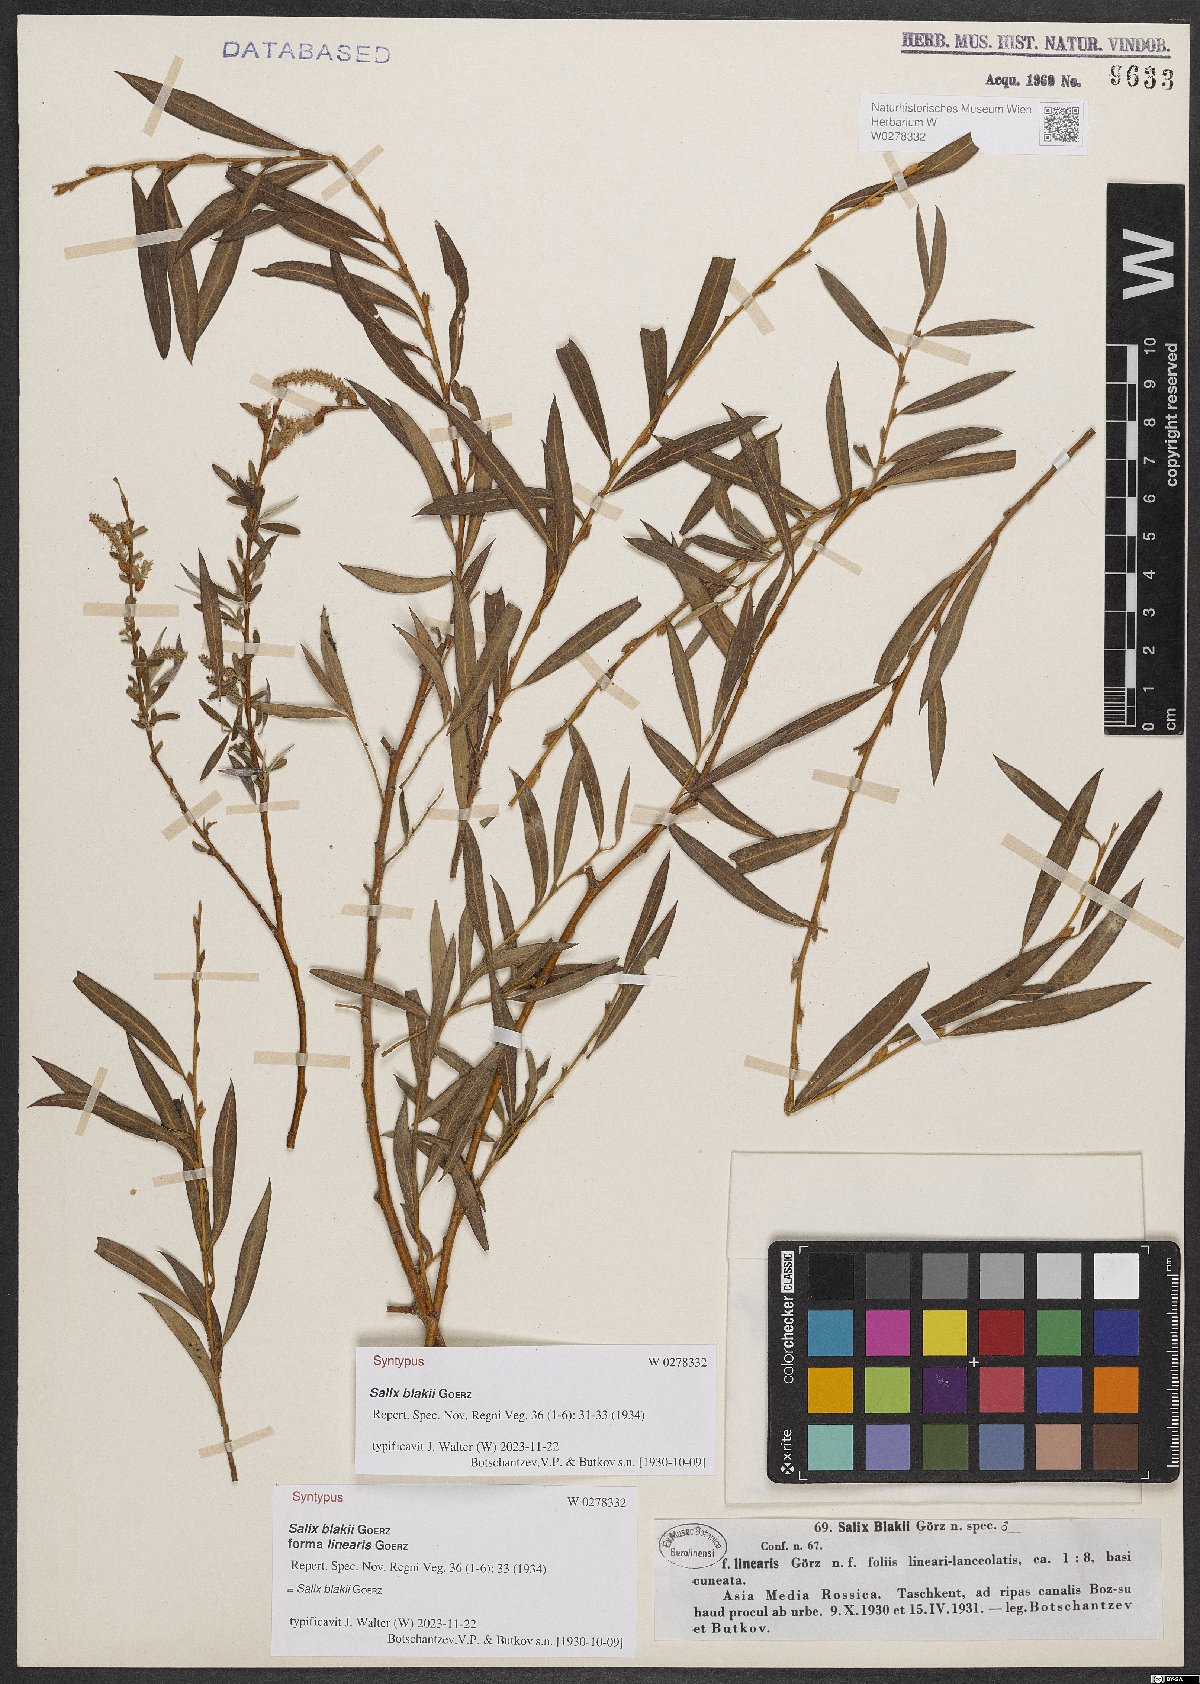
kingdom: Plantae
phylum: Tracheophyta
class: Magnoliopsida
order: Malpighiales
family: Salicaceae
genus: Salix
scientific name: Salix blakii
